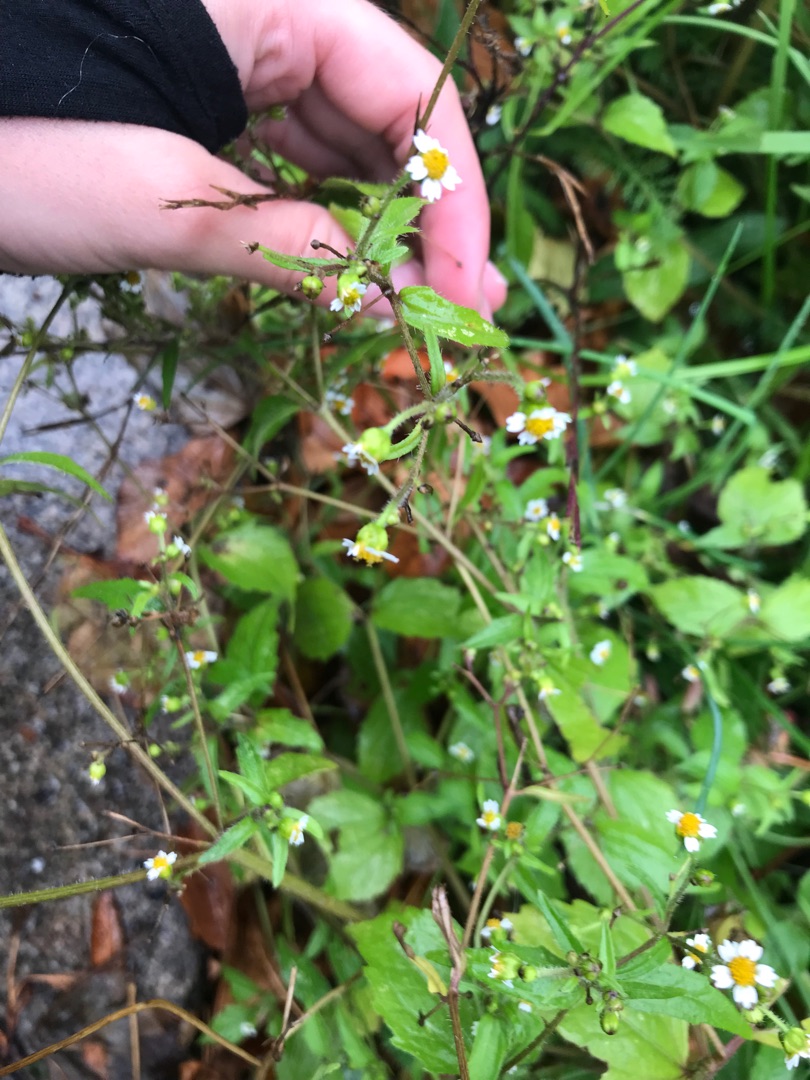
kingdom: Plantae
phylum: Tracheophyta
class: Magnoliopsida
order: Asterales
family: Asteraceae
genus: Galinsoga
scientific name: Galinsoga quadriradiata
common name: Kirtel-kortstråle
